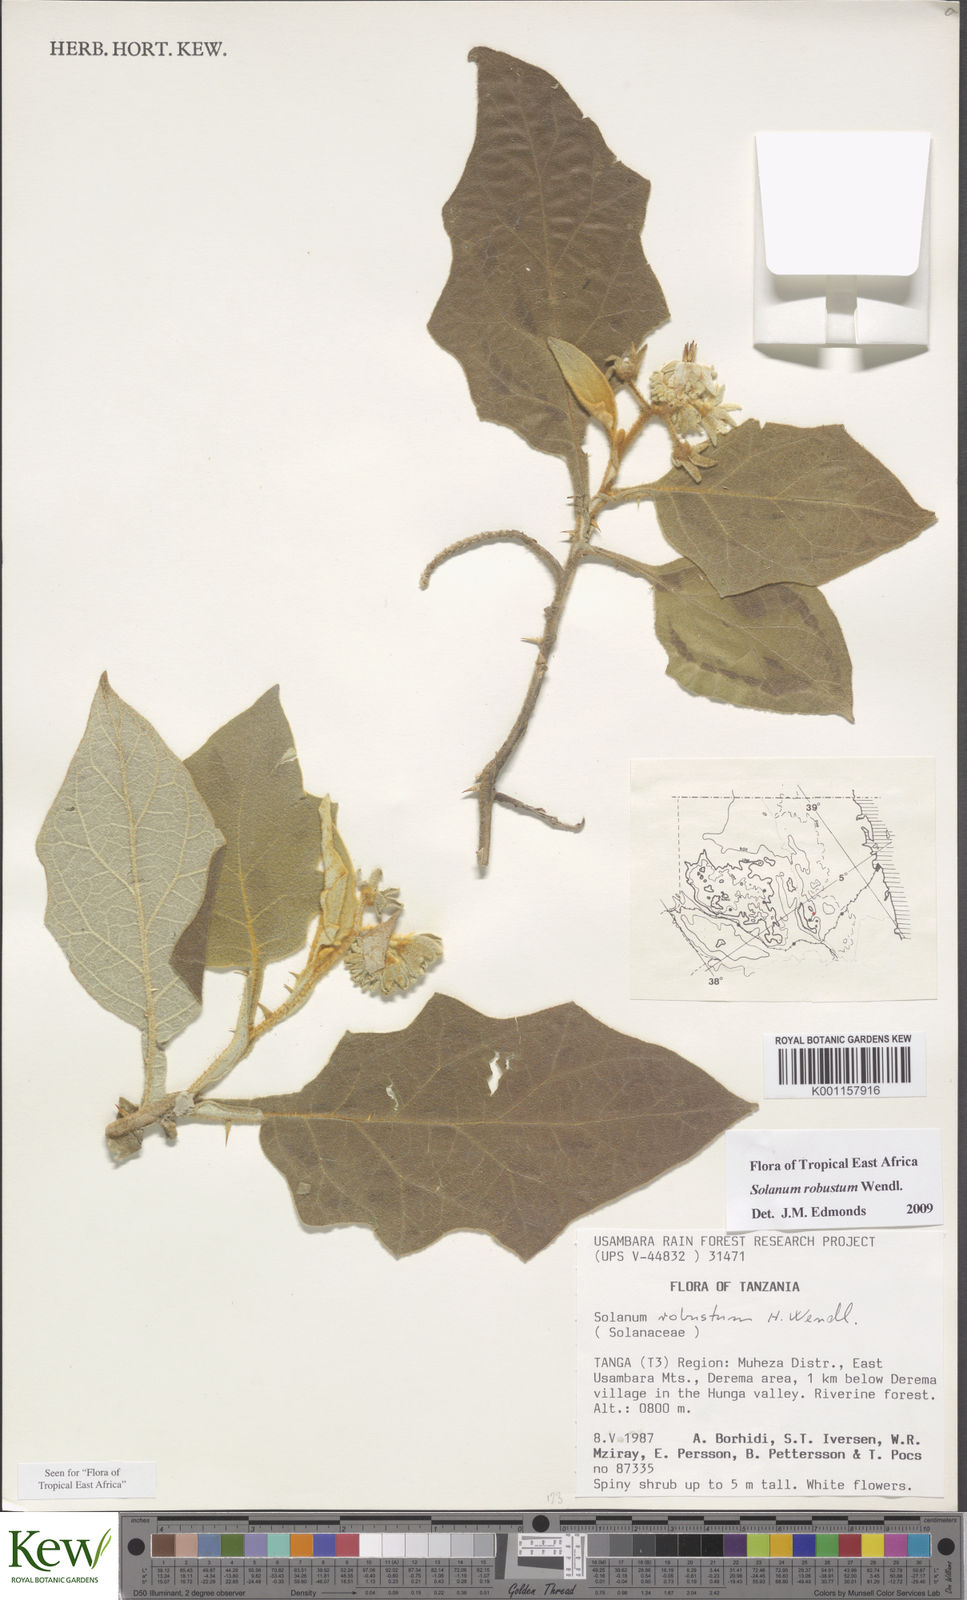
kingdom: Plantae
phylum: Tracheophyta
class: Magnoliopsida
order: Solanales
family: Solanaceae
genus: Solanum
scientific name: Solanum robustum
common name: Shrubby nightshade
